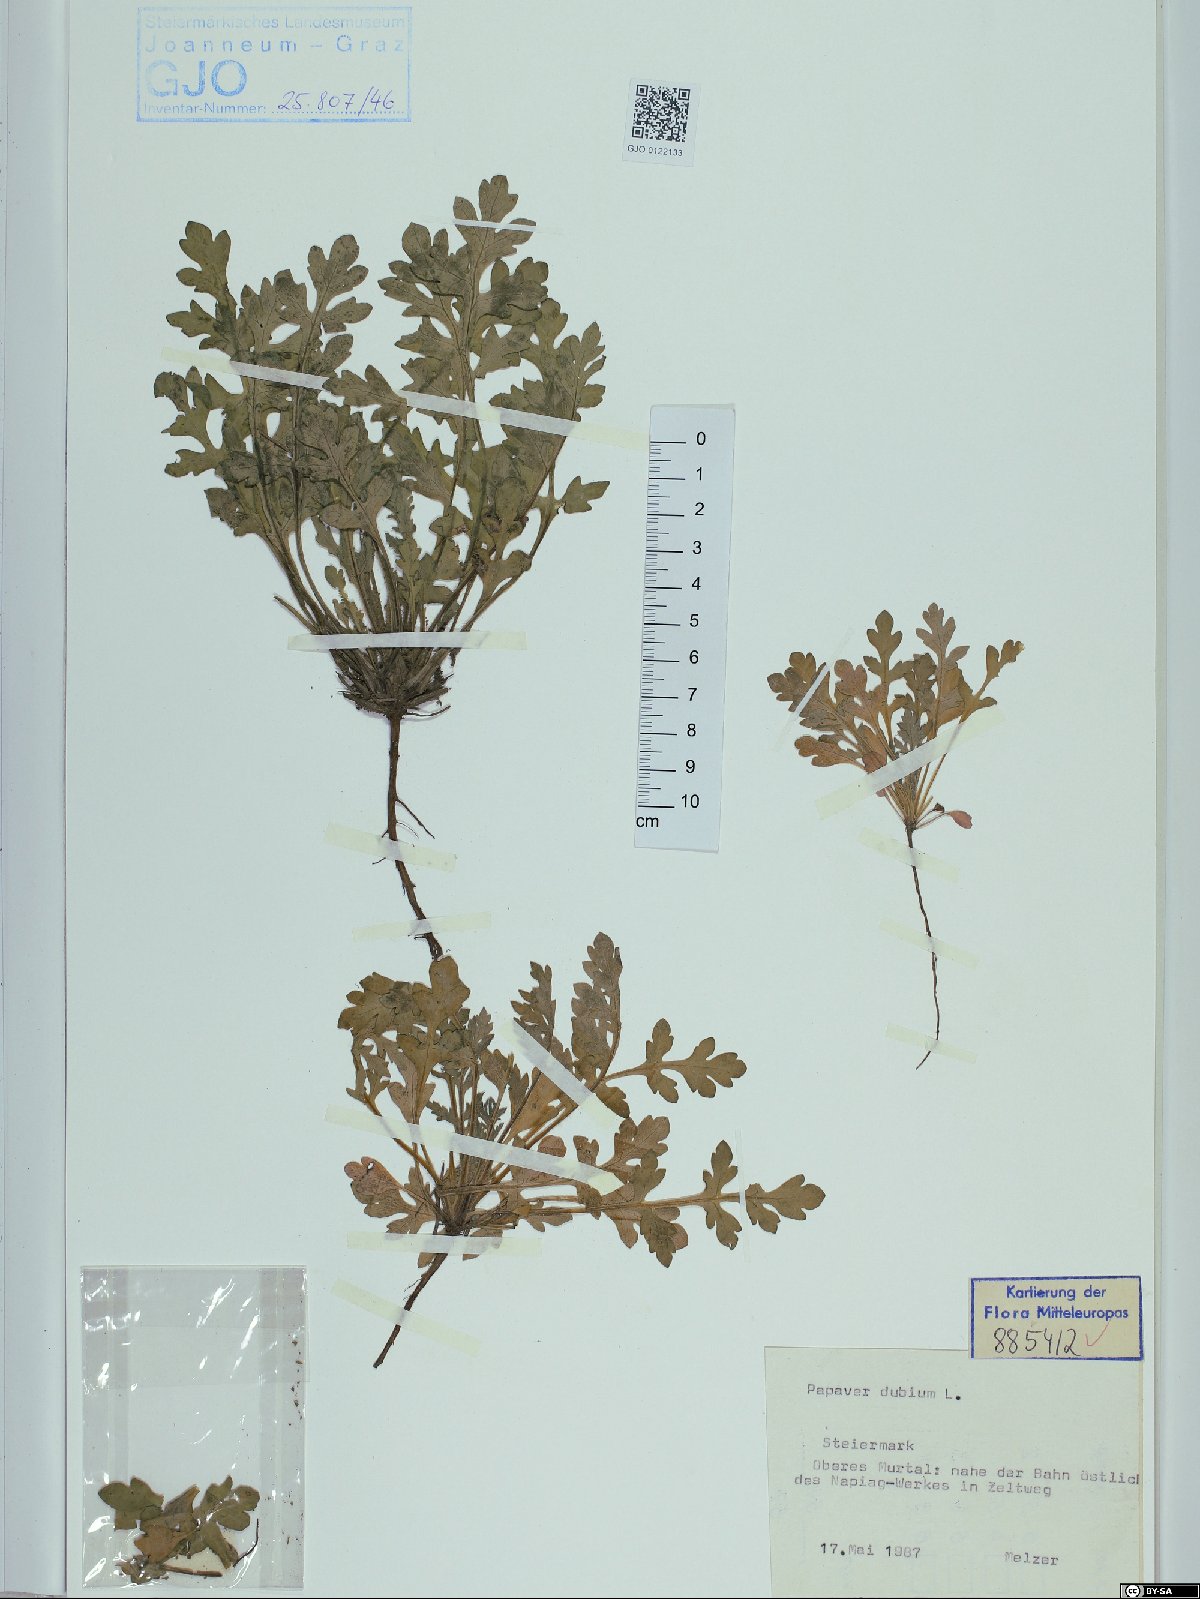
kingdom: Plantae
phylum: Tracheophyta
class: Magnoliopsida
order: Ranunculales
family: Papaveraceae
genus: Papaver
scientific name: Papaver dubium
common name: Long-headed poppy
